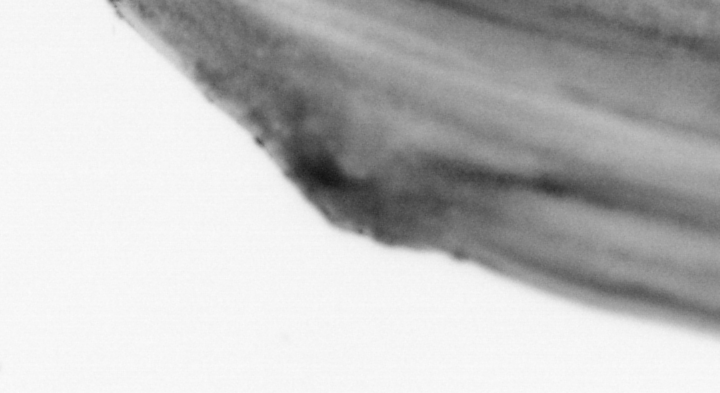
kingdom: Animalia
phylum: Chordata
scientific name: Chordata
